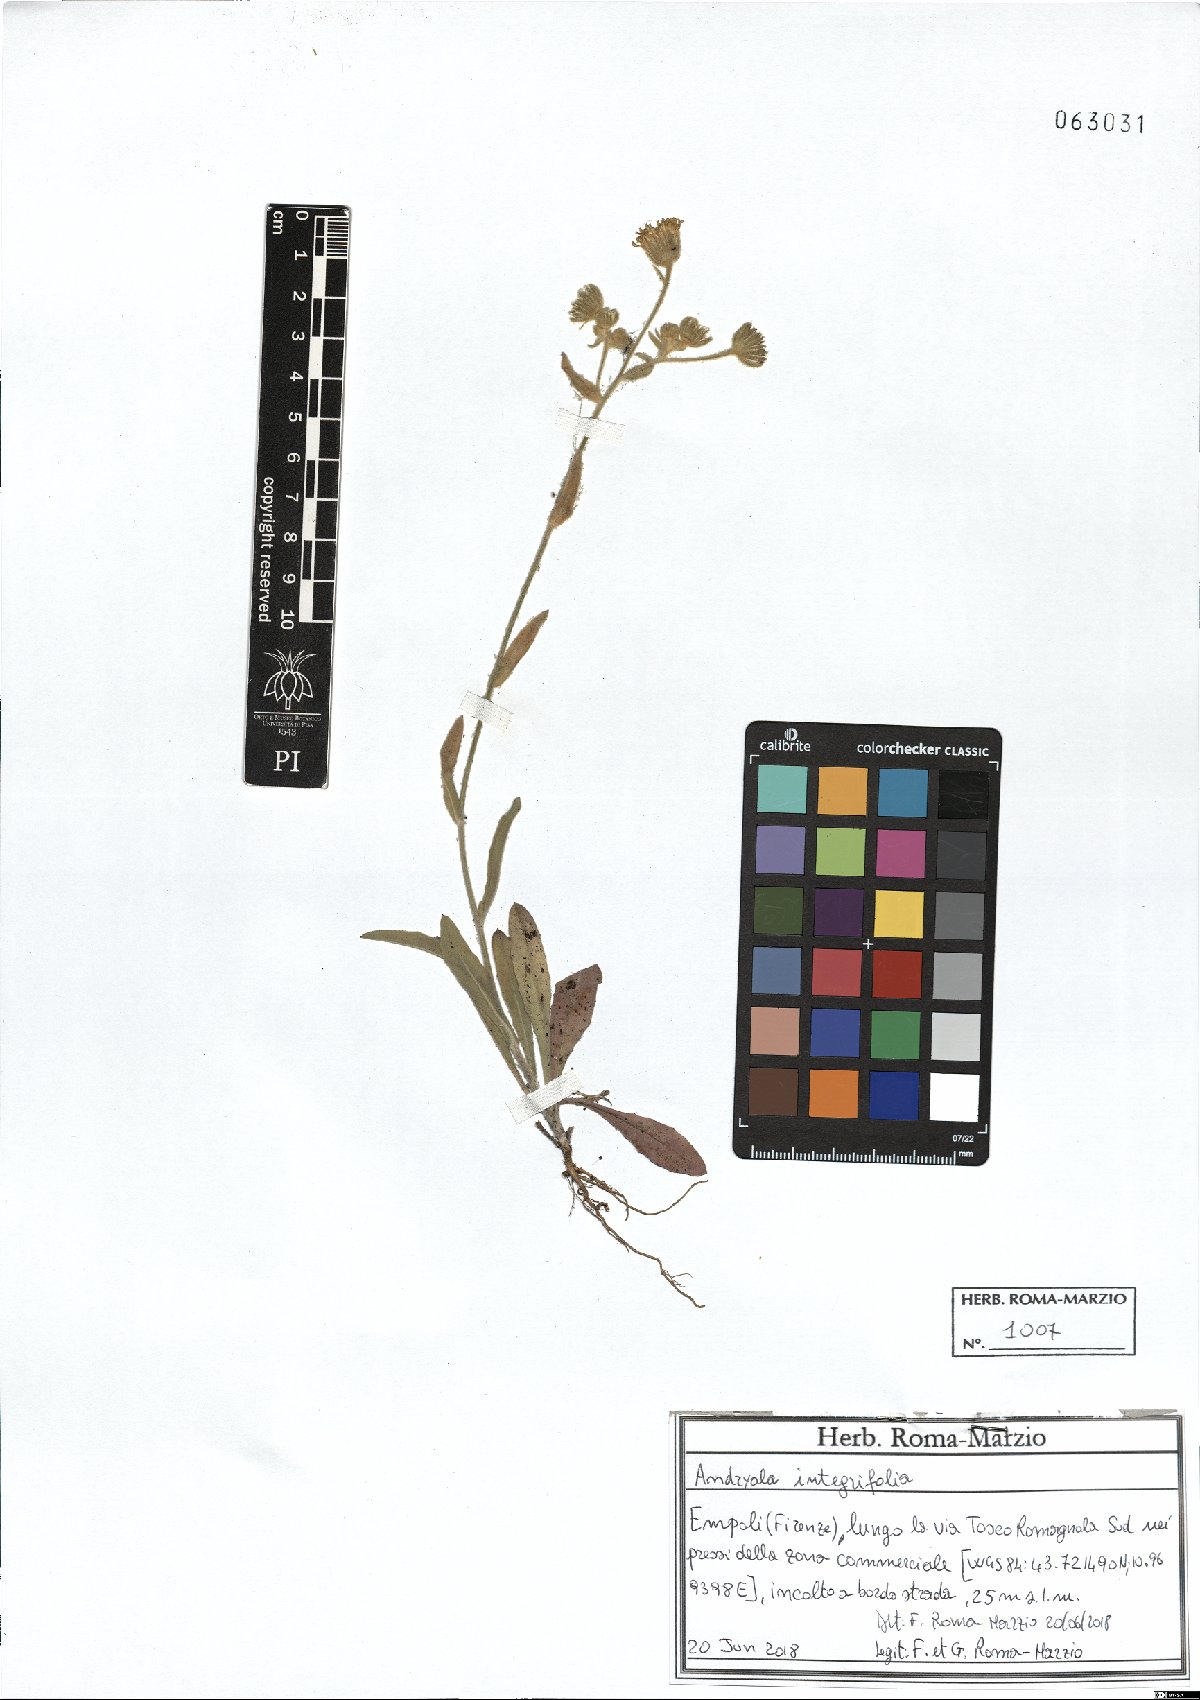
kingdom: Plantae
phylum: Tracheophyta
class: Magnoliopsida
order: Asterales
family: Asteraceae
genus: Andryala
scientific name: Andryala integrifolia
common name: Common andryala
